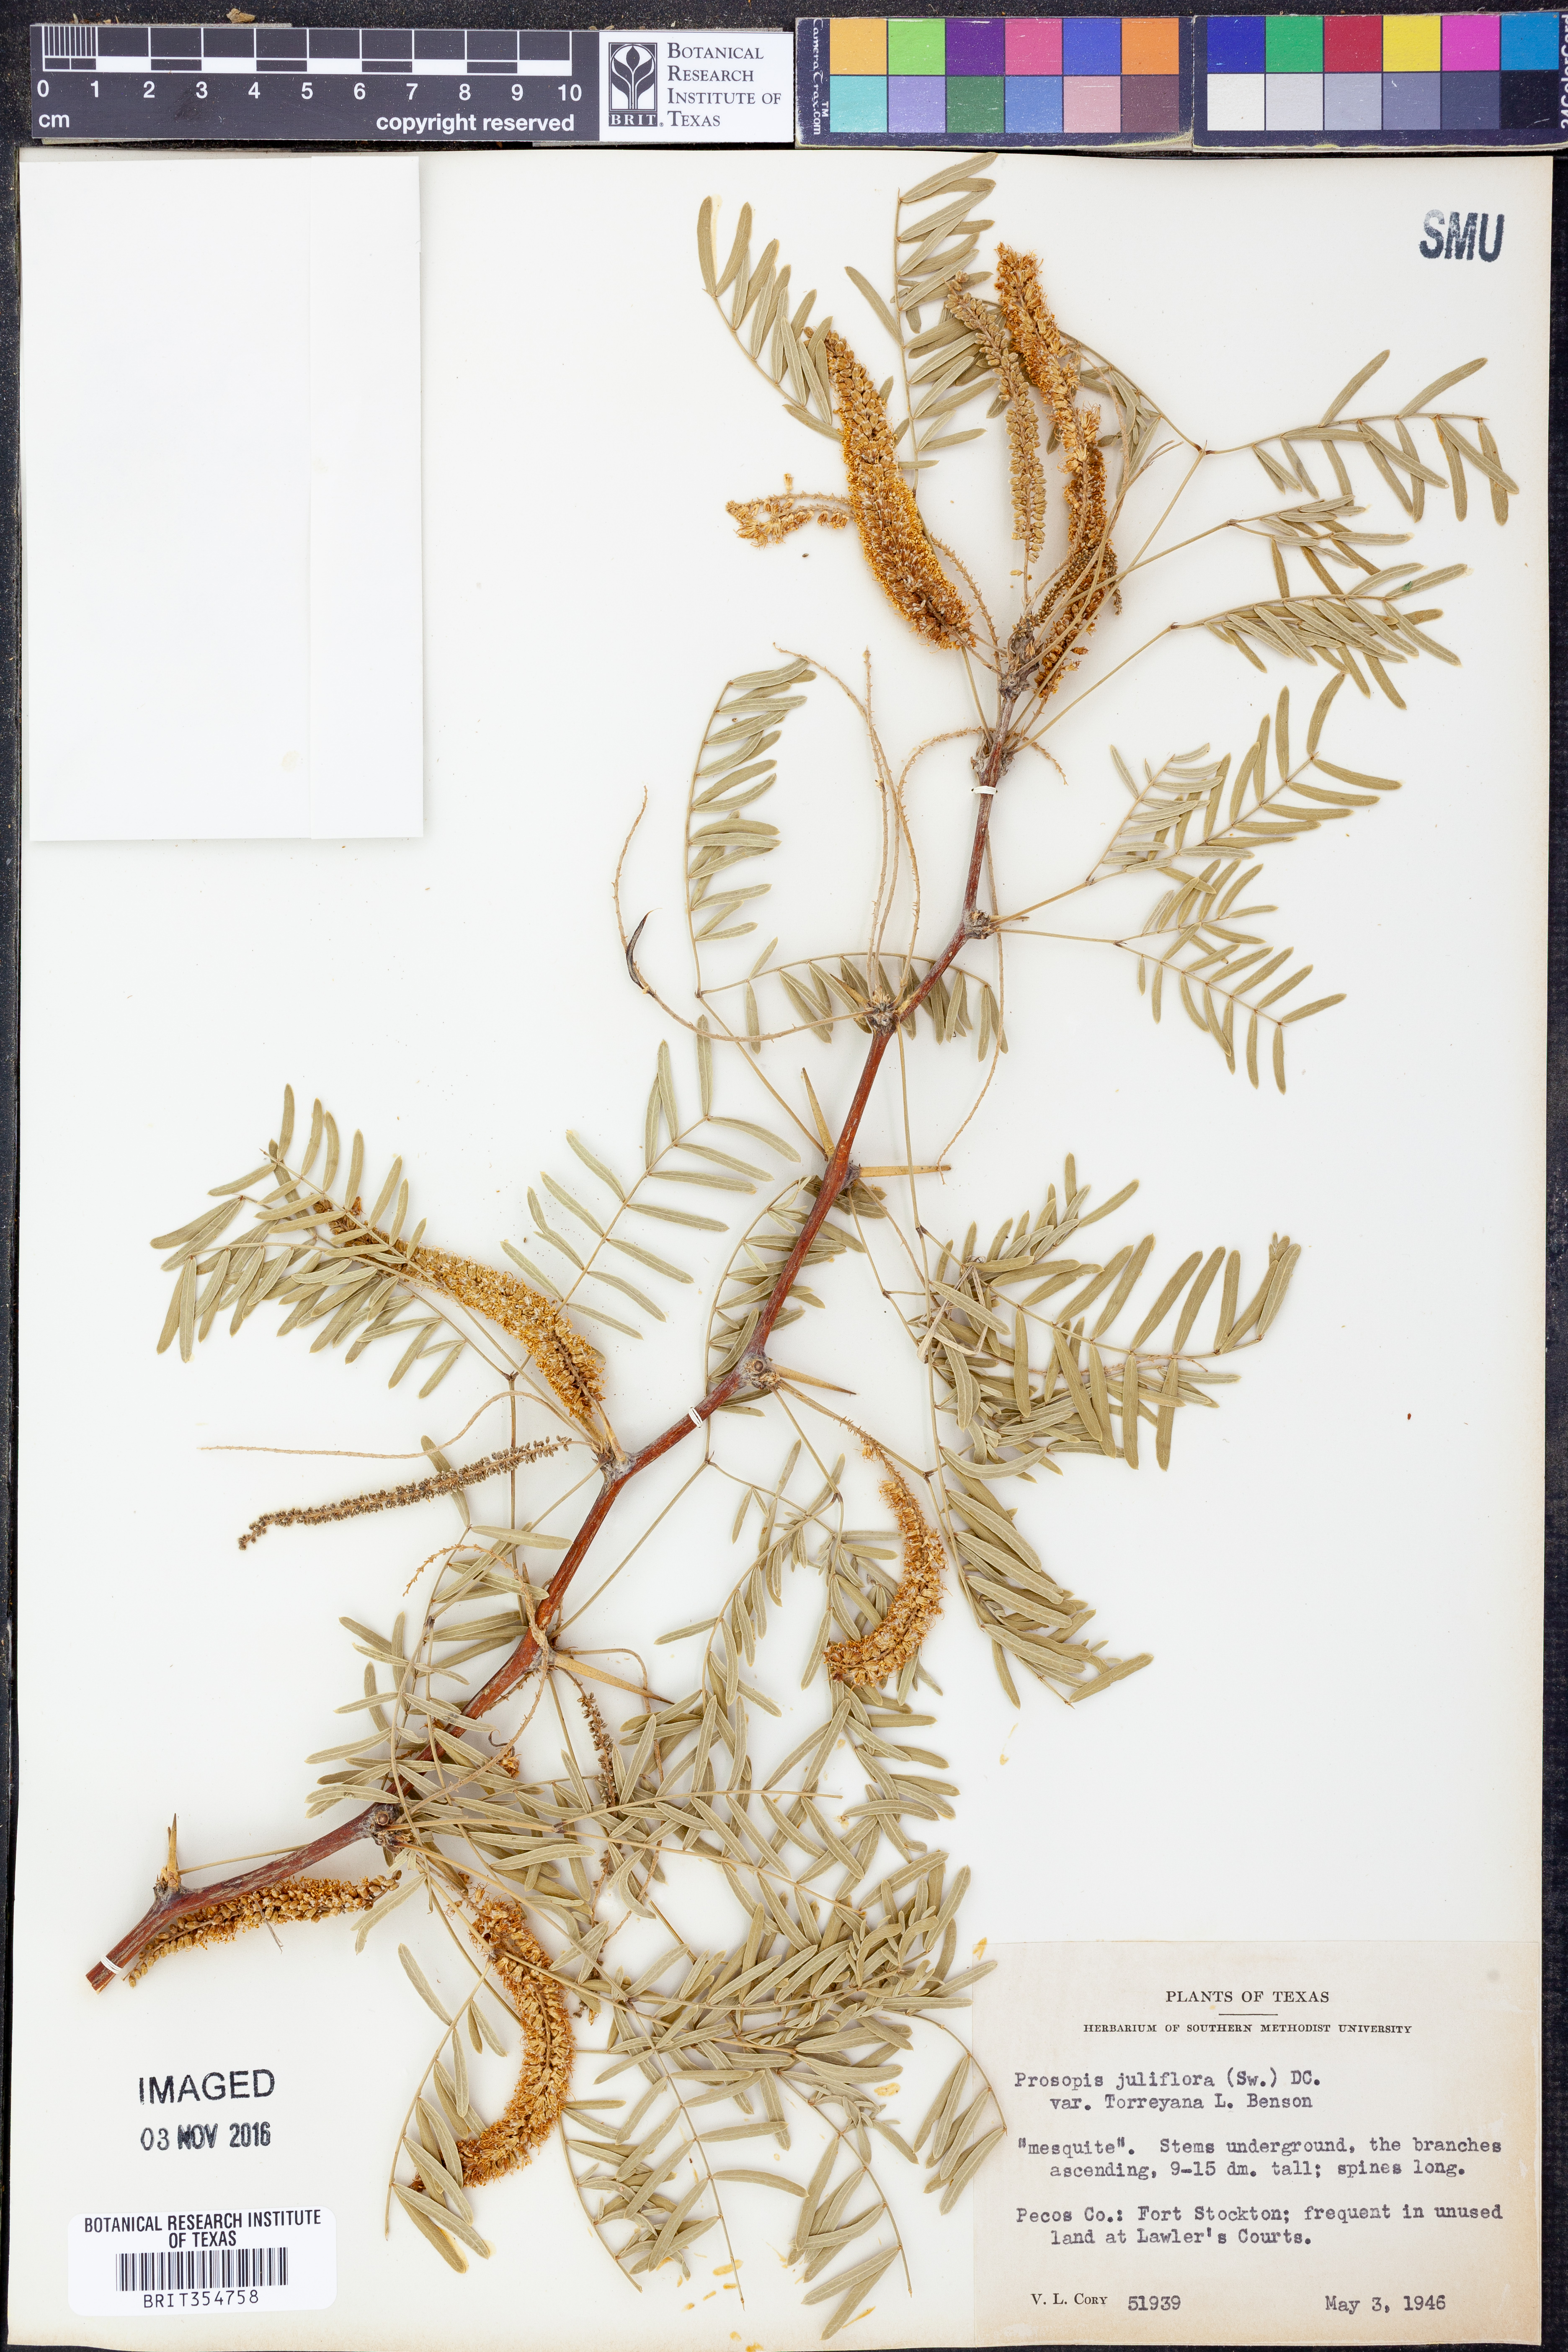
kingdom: Plantae
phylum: Tracheophyta
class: Magnoliopsida
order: Fabales
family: Fabaceae
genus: Prosopis
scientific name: Prosopis glandulosa
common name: Honey mesquite
